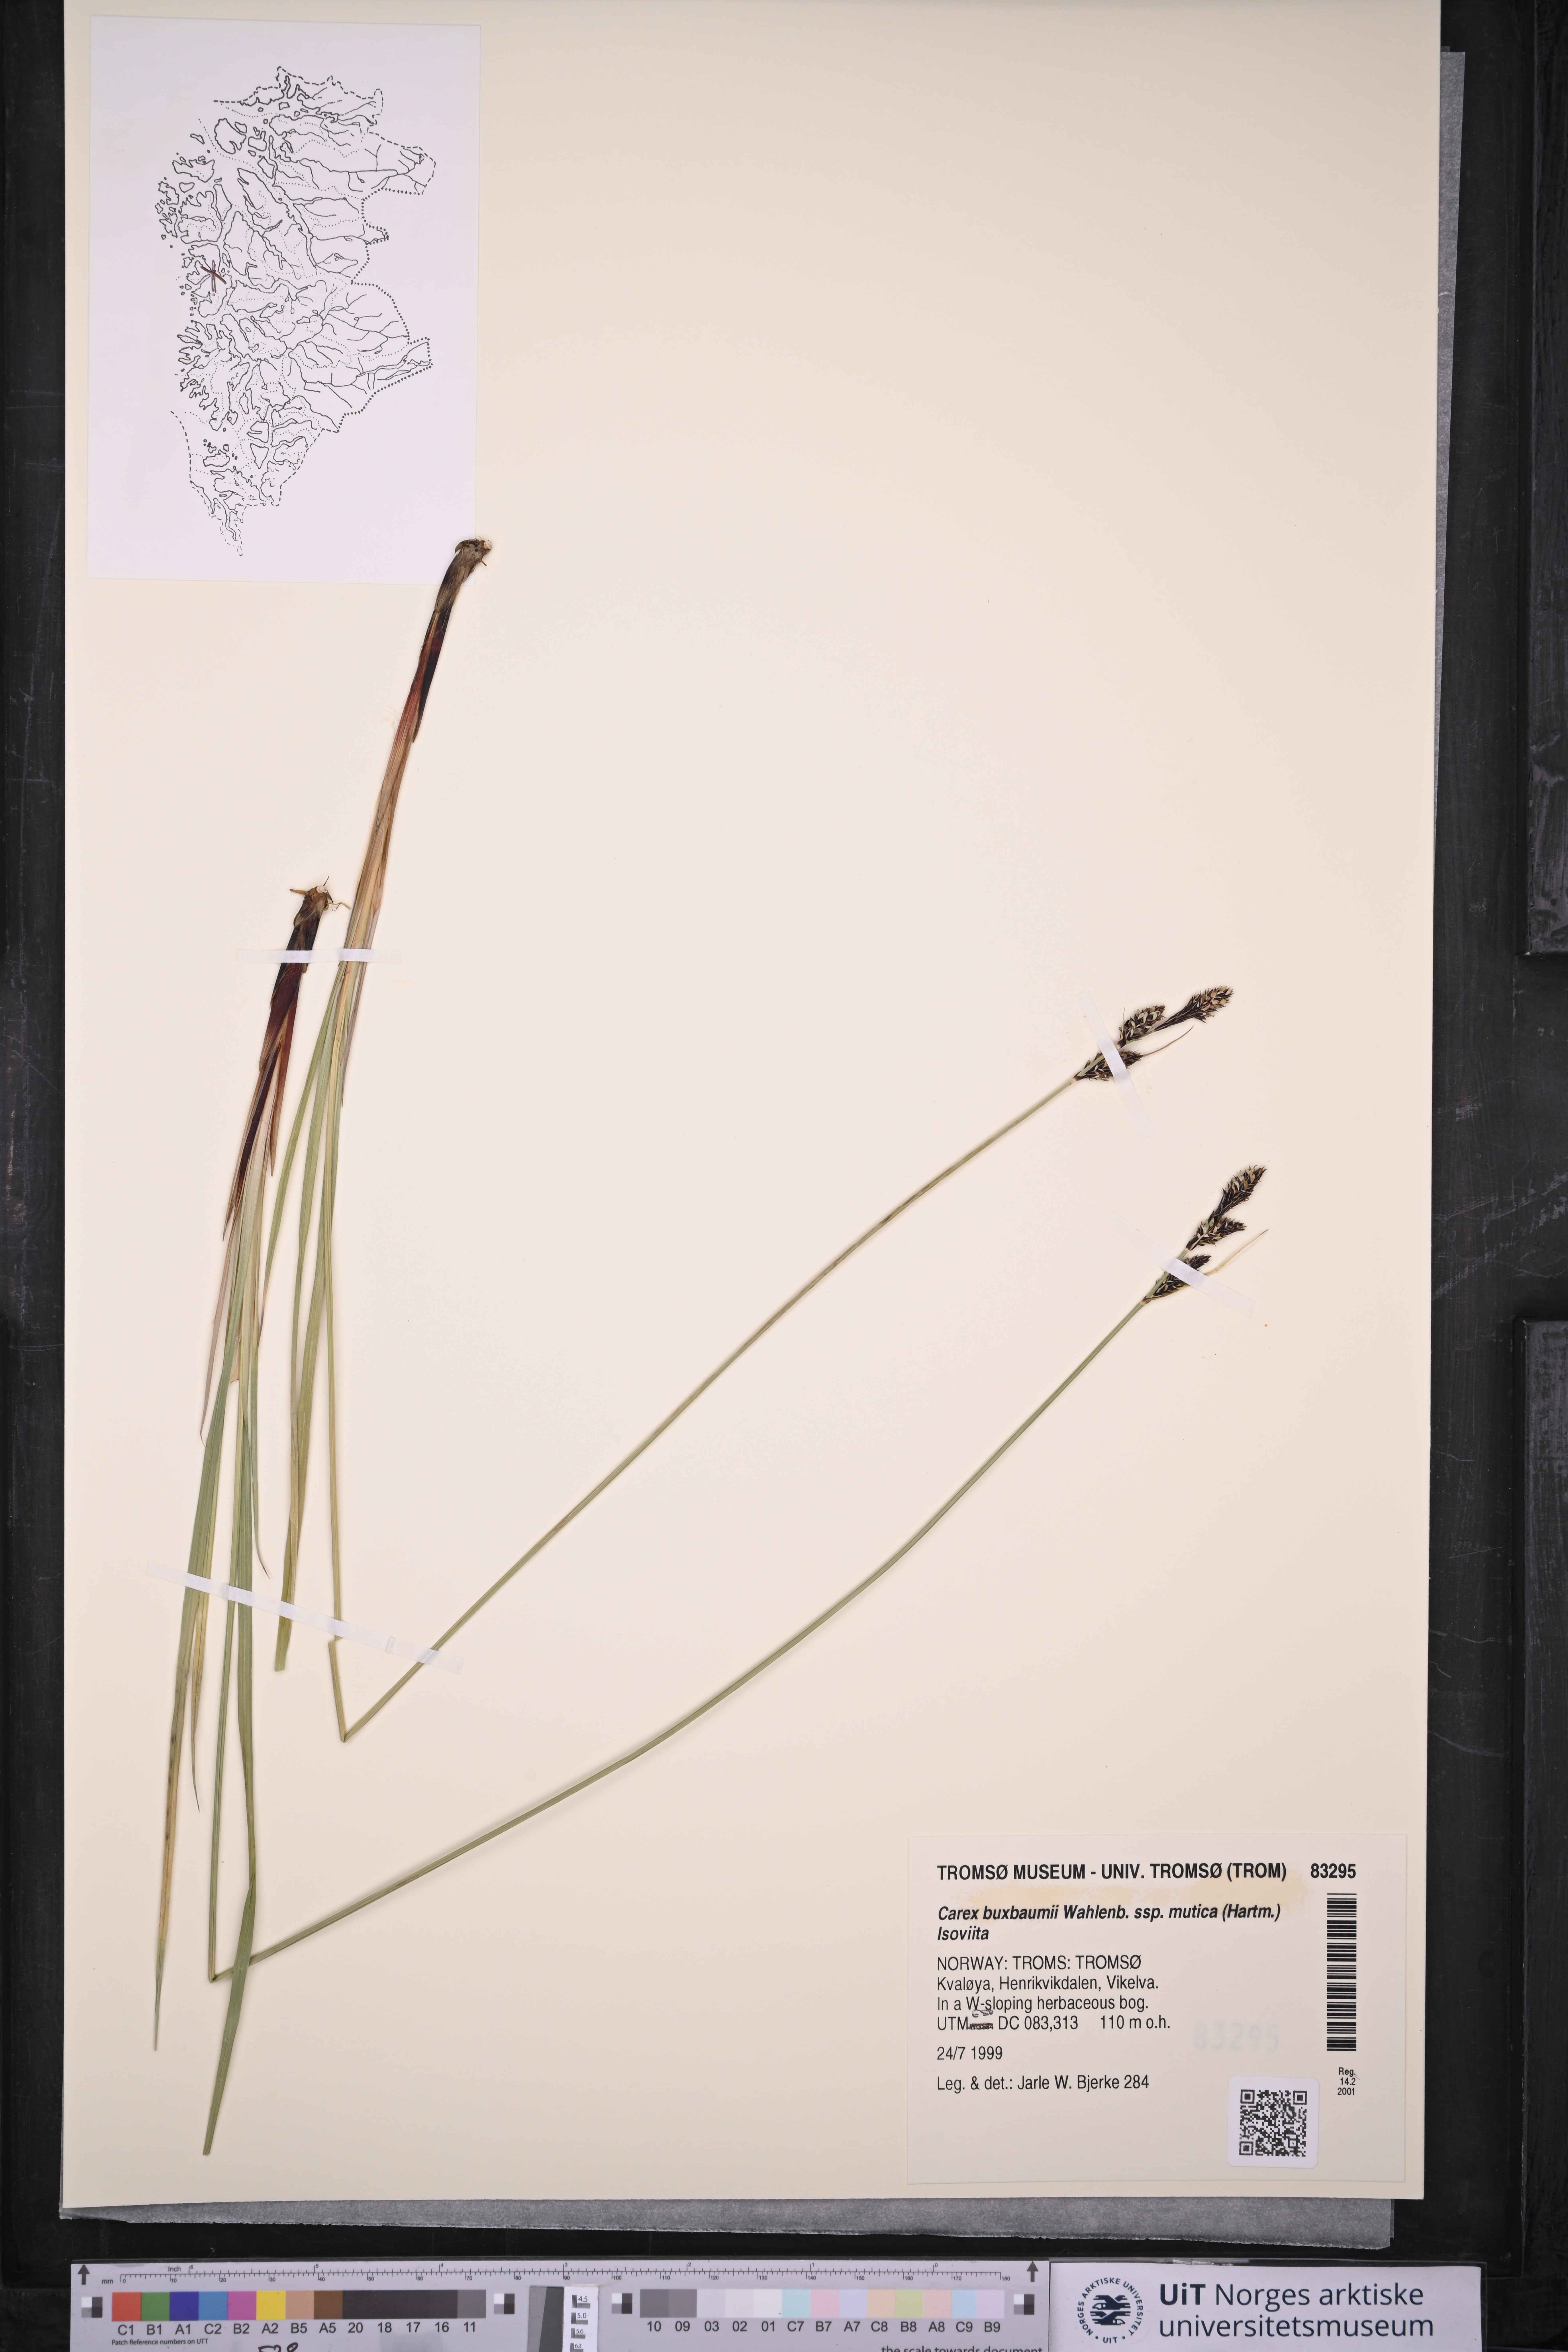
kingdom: Plantae
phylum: Tracheophyta
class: Liliopsida
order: Poales
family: Cyperaceae
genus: Carex
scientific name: Carex adelostoma
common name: Circumpolar sedge
